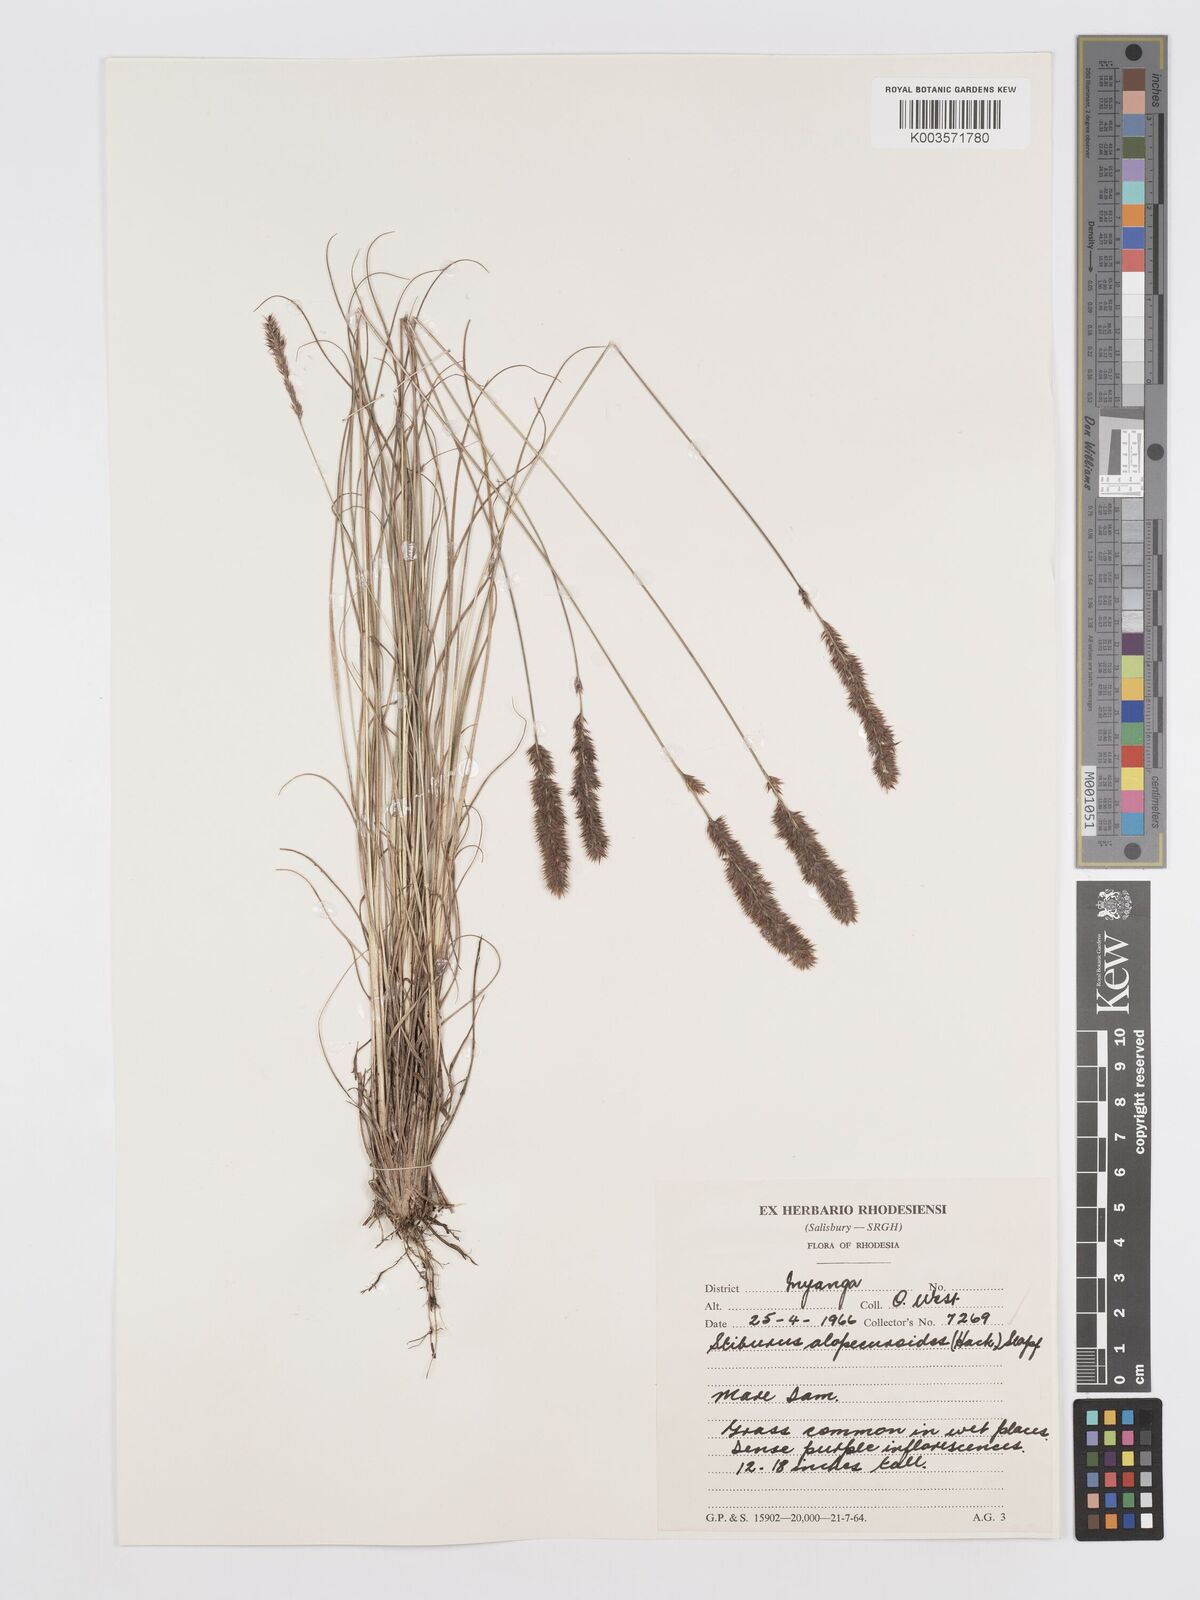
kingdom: Plantae
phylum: Tracheophyta
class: Liliopsida
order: Poales
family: Poaceae
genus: Stiburus
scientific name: Stiburus alopecuroides
